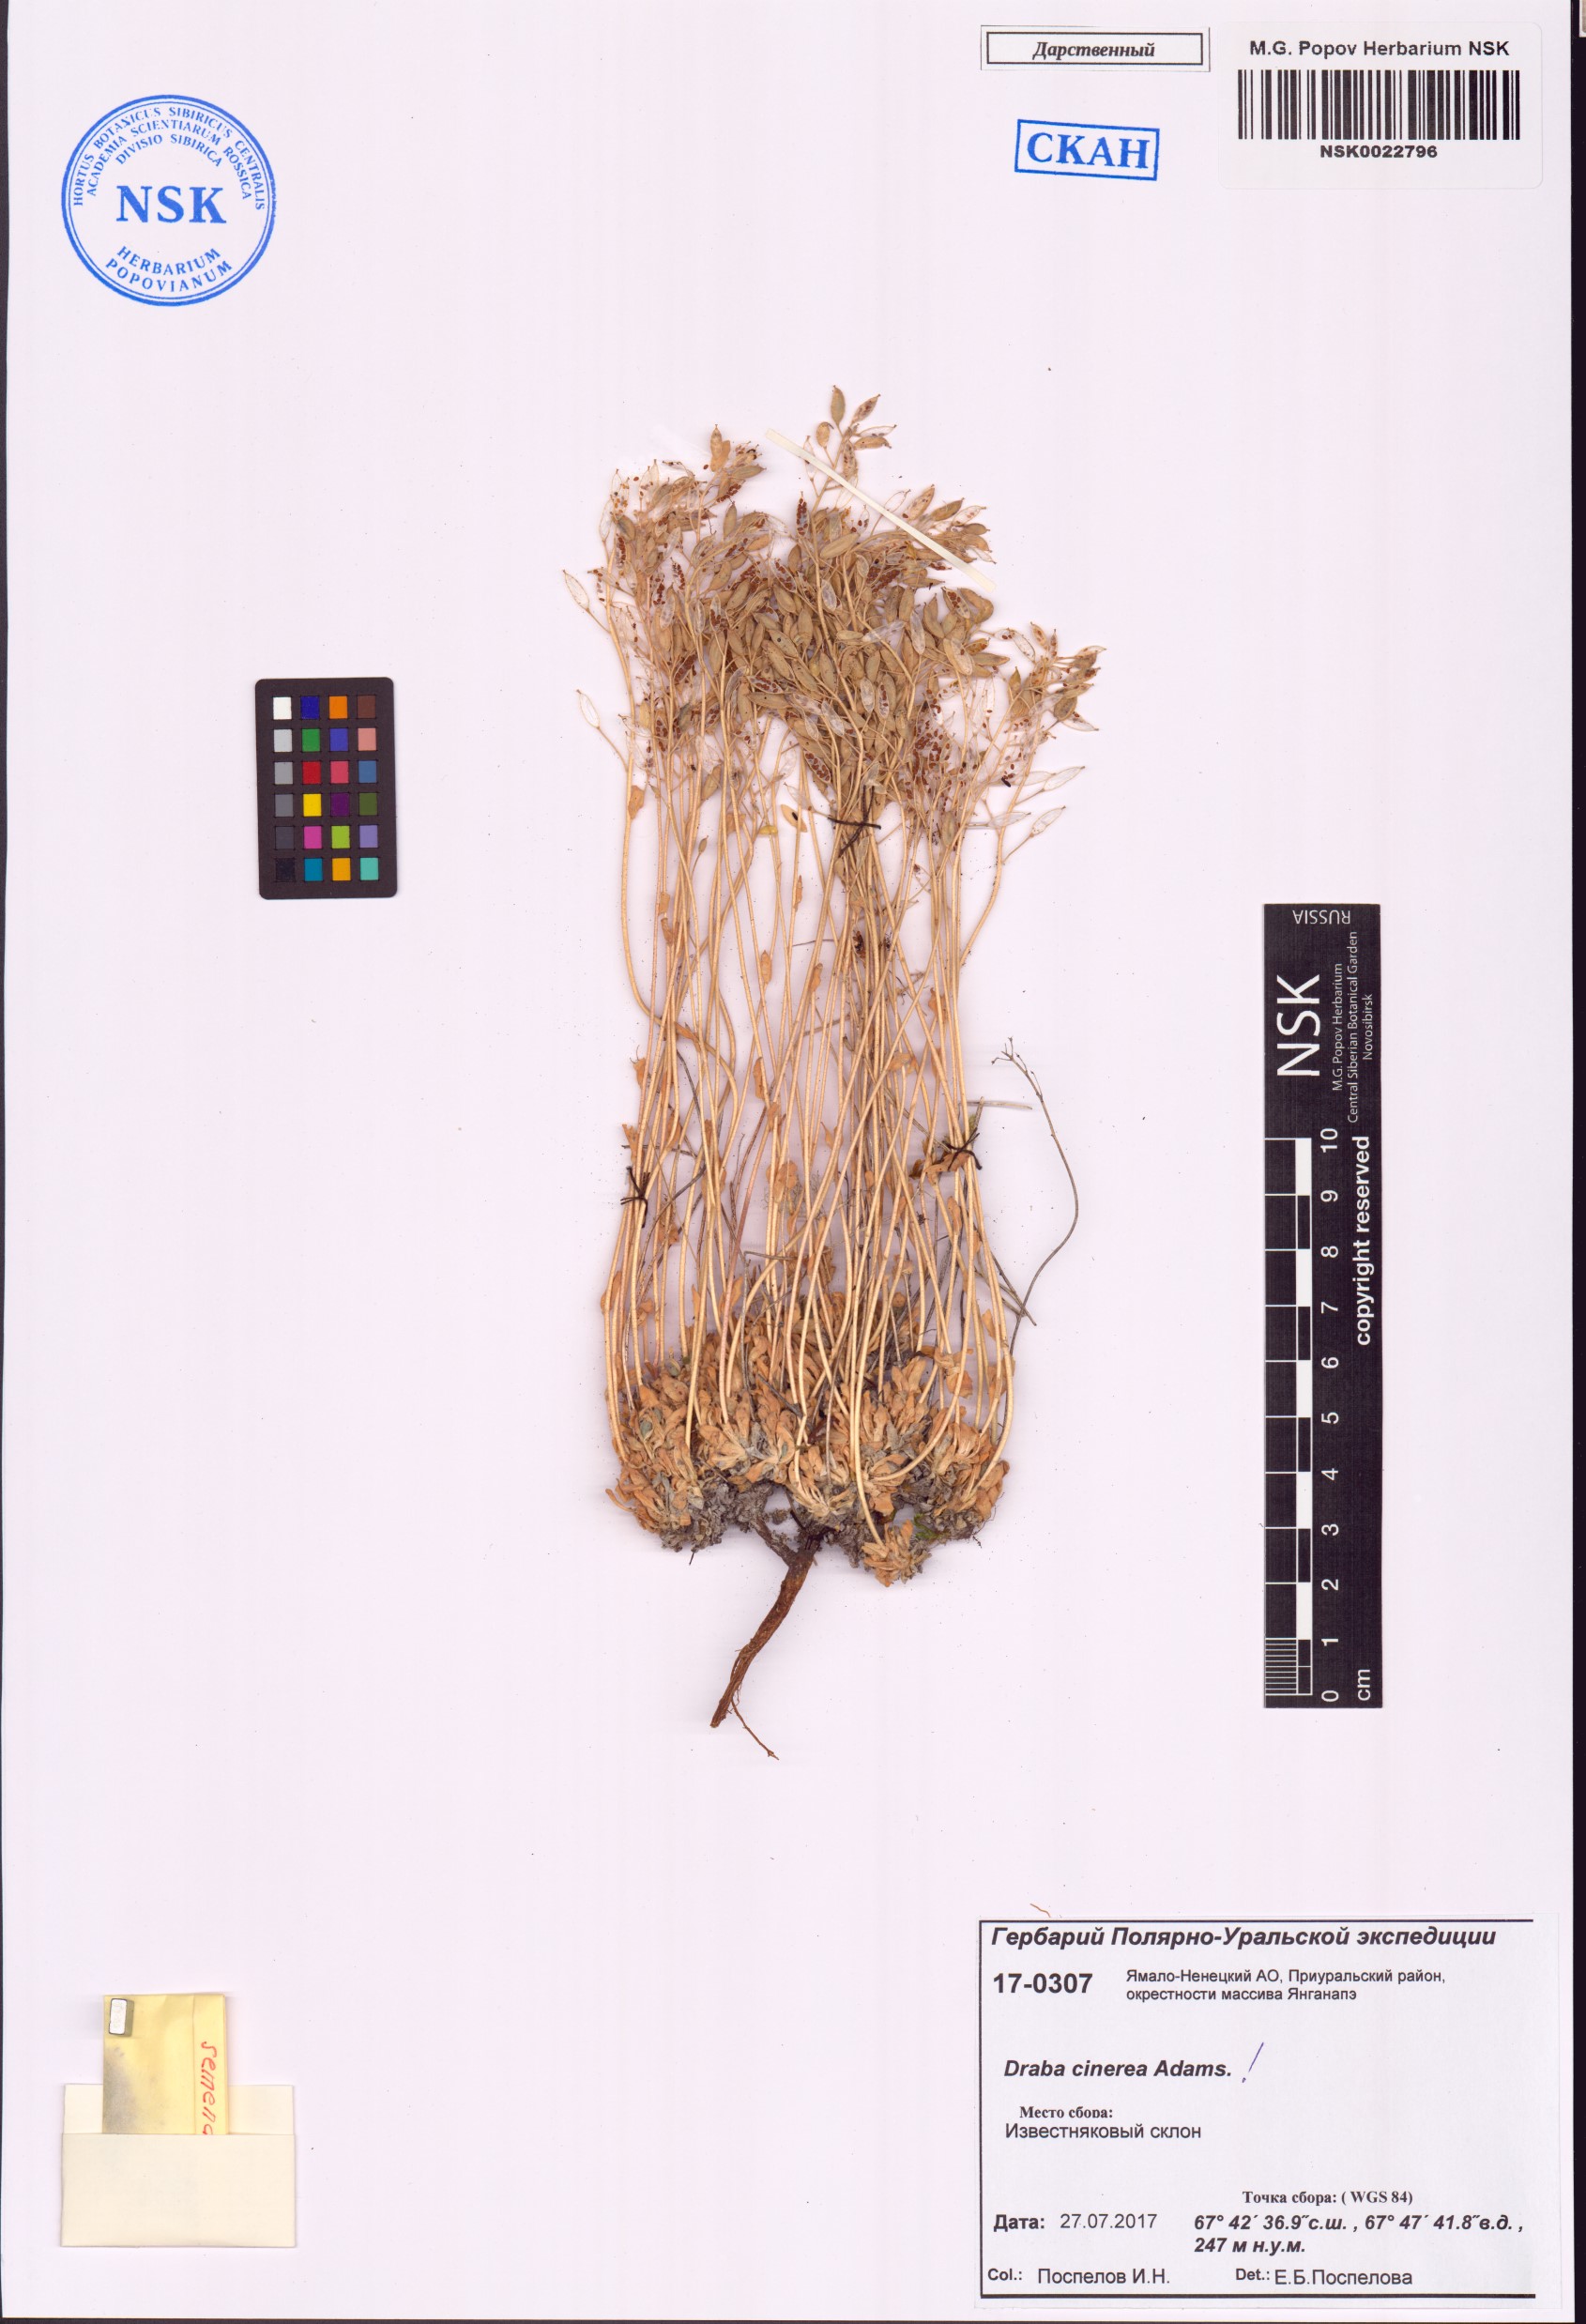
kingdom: Plantae
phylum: Tracheophyta
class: Magnoliopsida
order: Brassicales
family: Brassicaceae
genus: Draba
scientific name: Draba cinerea
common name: Ash-coloured whitlow-grass
